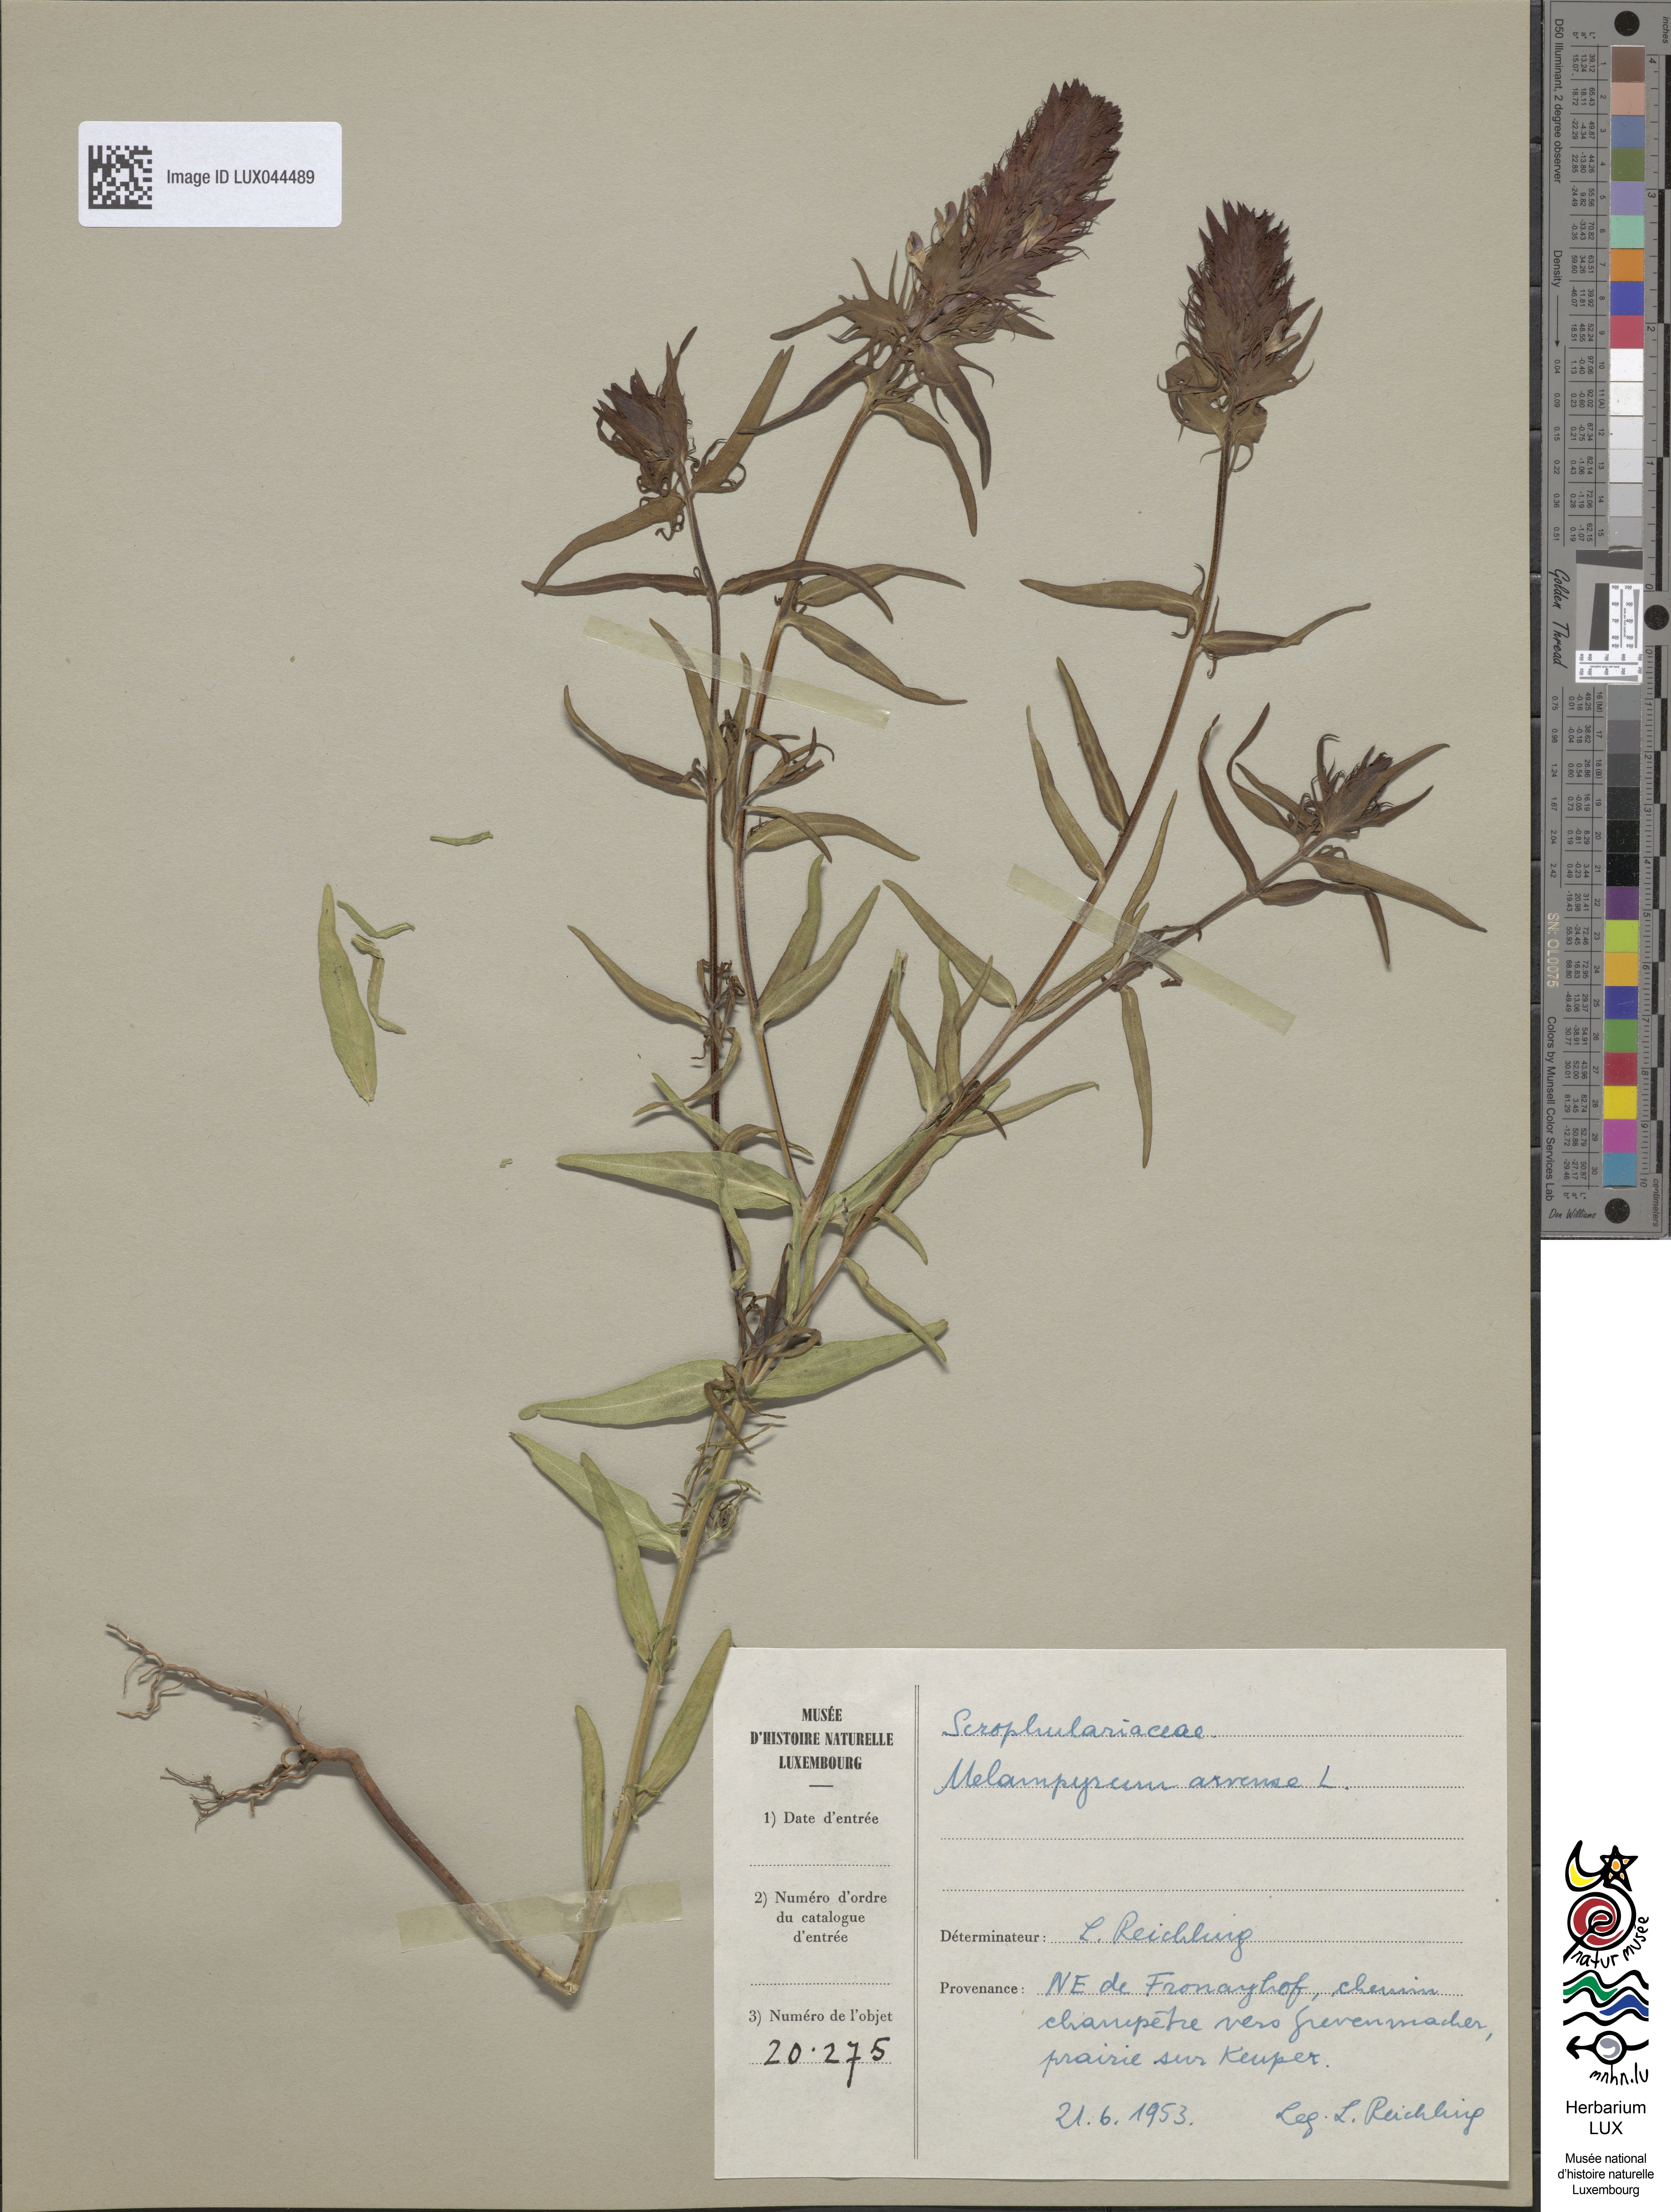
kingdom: Plantae
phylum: Tracheophyta
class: Magnoliopsida
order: Lamiales
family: Orobanchaceae
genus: Melampyrum
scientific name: Melampyrum arvense
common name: Field cow-wheat
